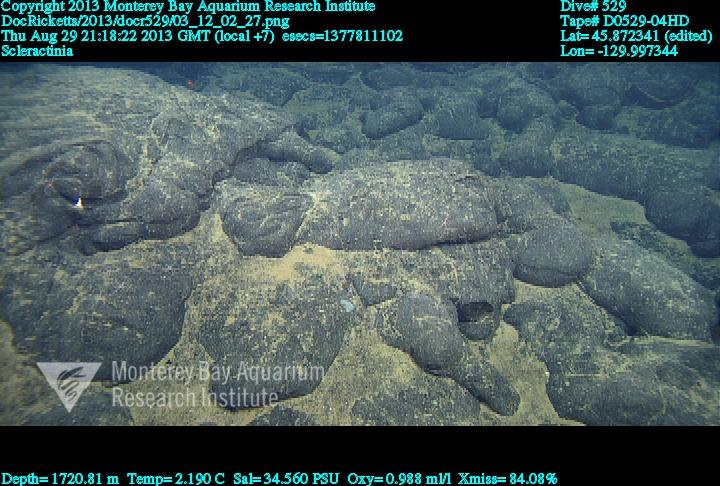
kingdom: Animalia
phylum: Cnidaria
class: Anthozoa
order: Scleractinia
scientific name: Scleractinia
